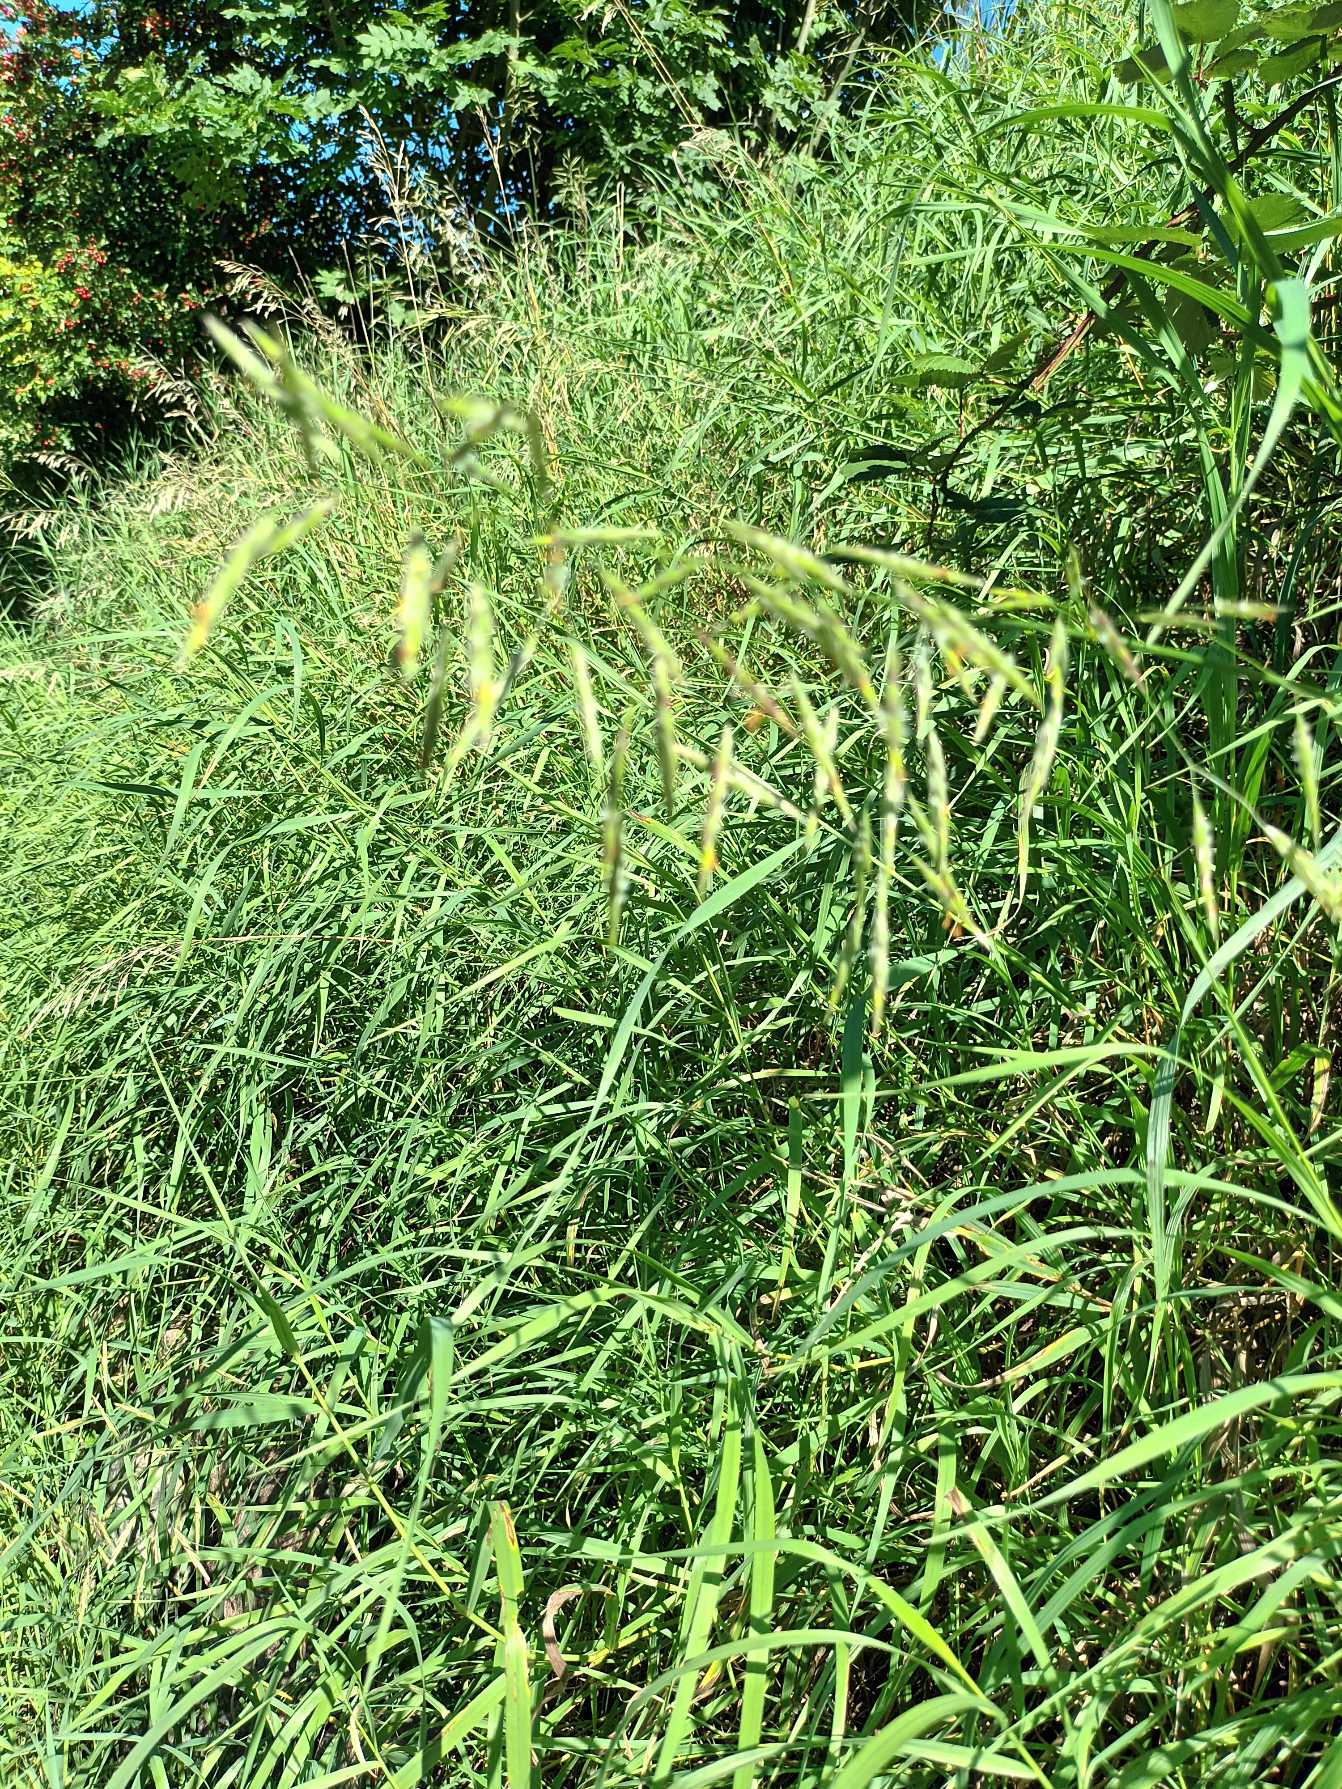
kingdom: Plantae
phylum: Tracheophyta
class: Liliopsida
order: Poales
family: Poaceae
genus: Bromus
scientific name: Bromus inermis
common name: Stakløs hejre
